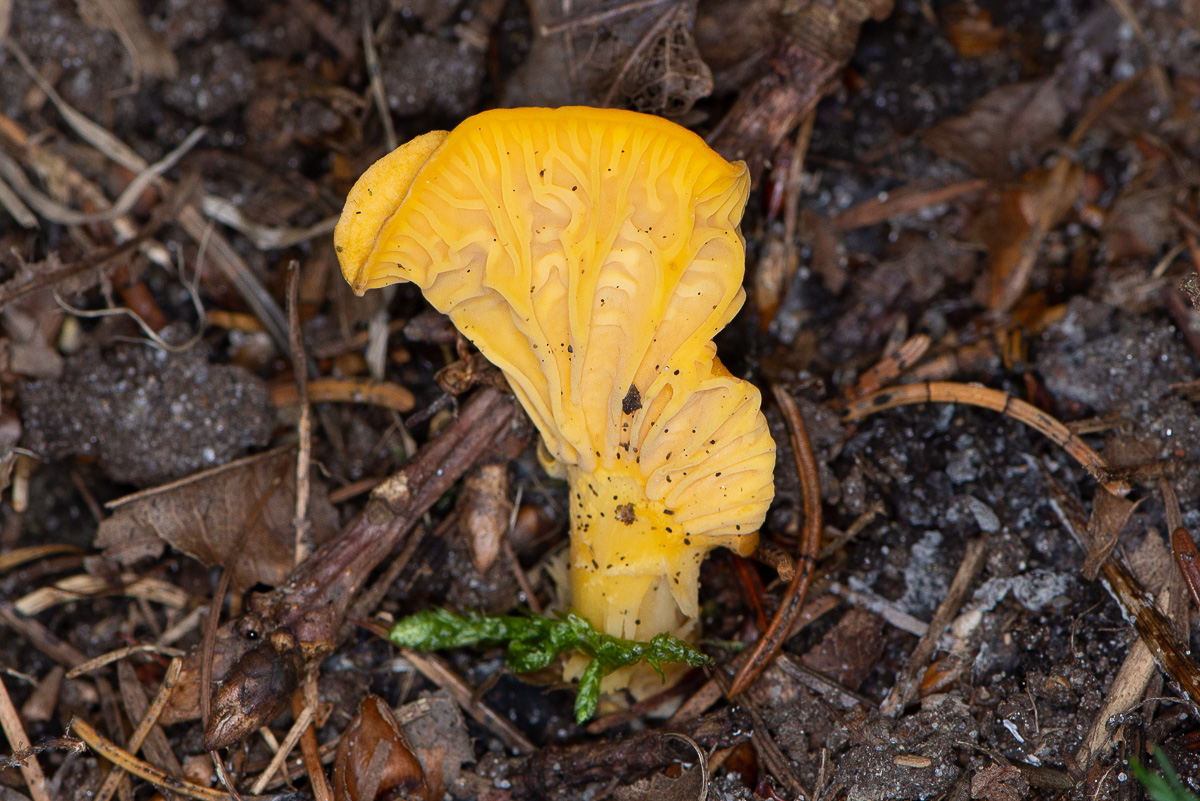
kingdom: Fungi
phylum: Basidiomycota
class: Agaricomycetes
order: Cantharellales
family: Hydnaceae
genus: Cantharellus
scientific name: Cantharellus cibarius
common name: almindelig kantarel
